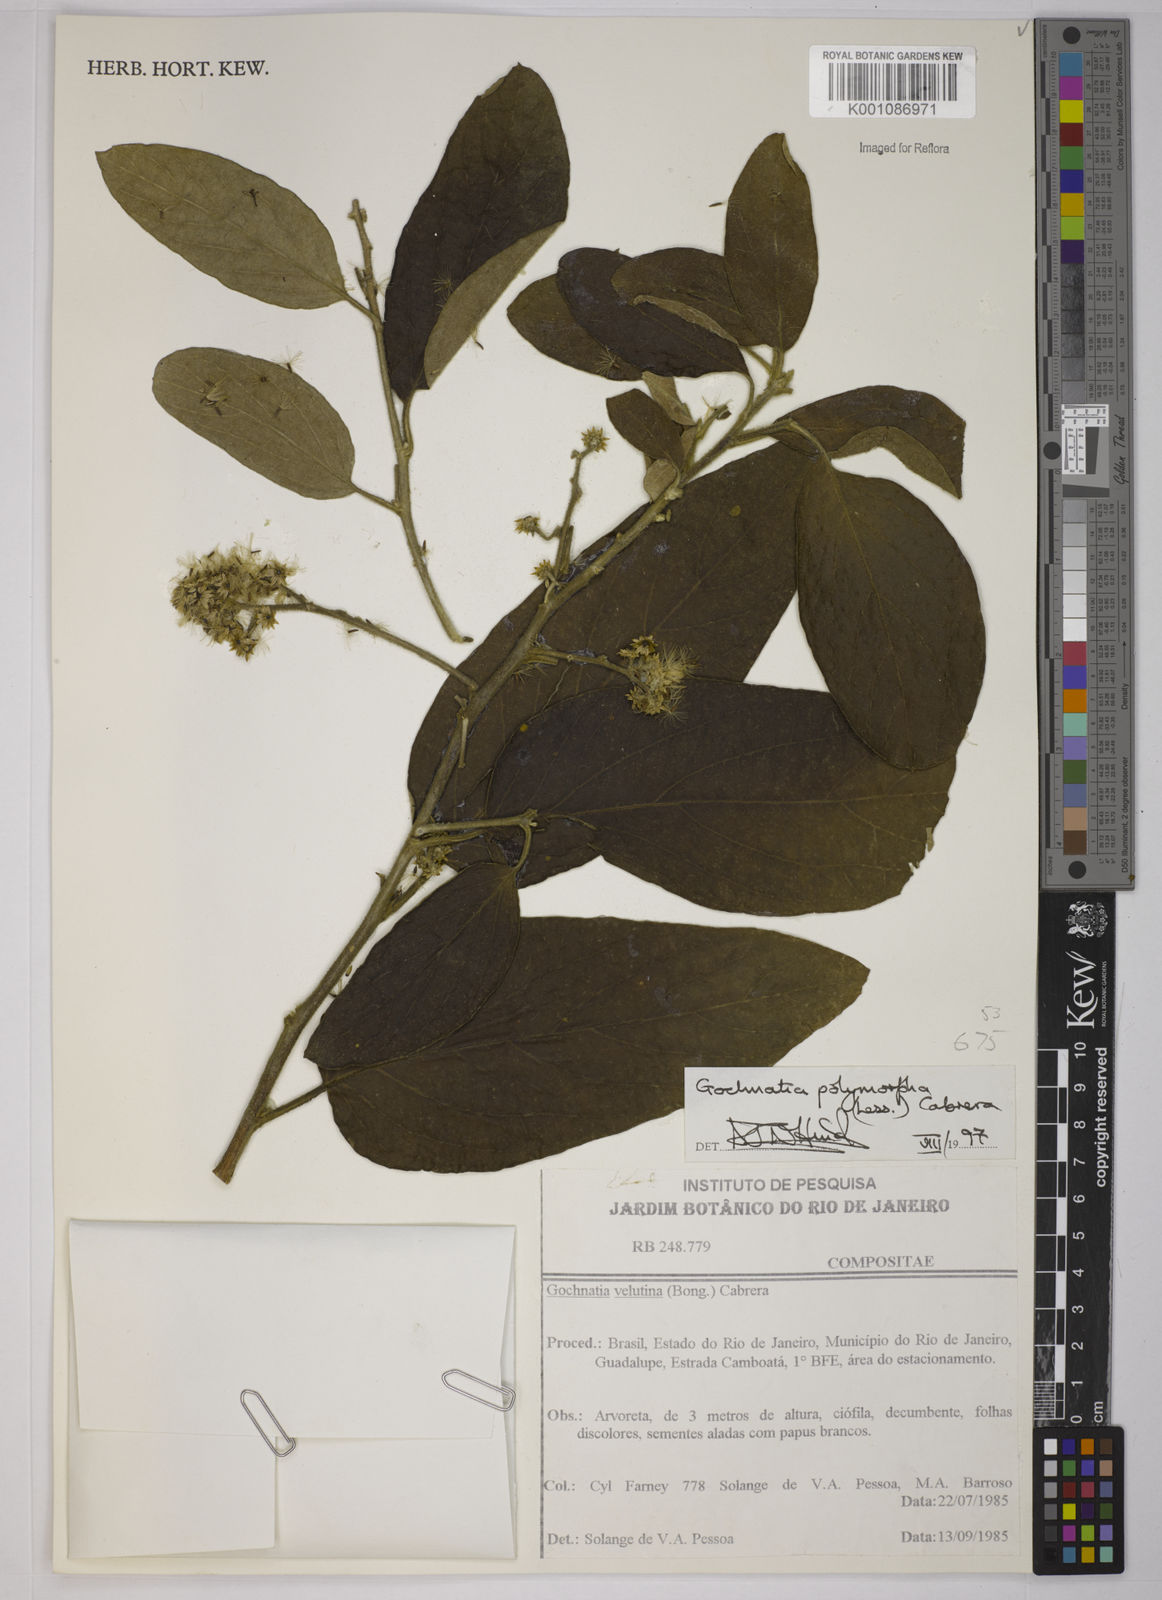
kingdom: Plantae
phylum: Tracheophyta
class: Magnoliopsida
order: Asterales
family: Asteraceae
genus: Moquiniastrum
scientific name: Moquiniastrum polymorphum
